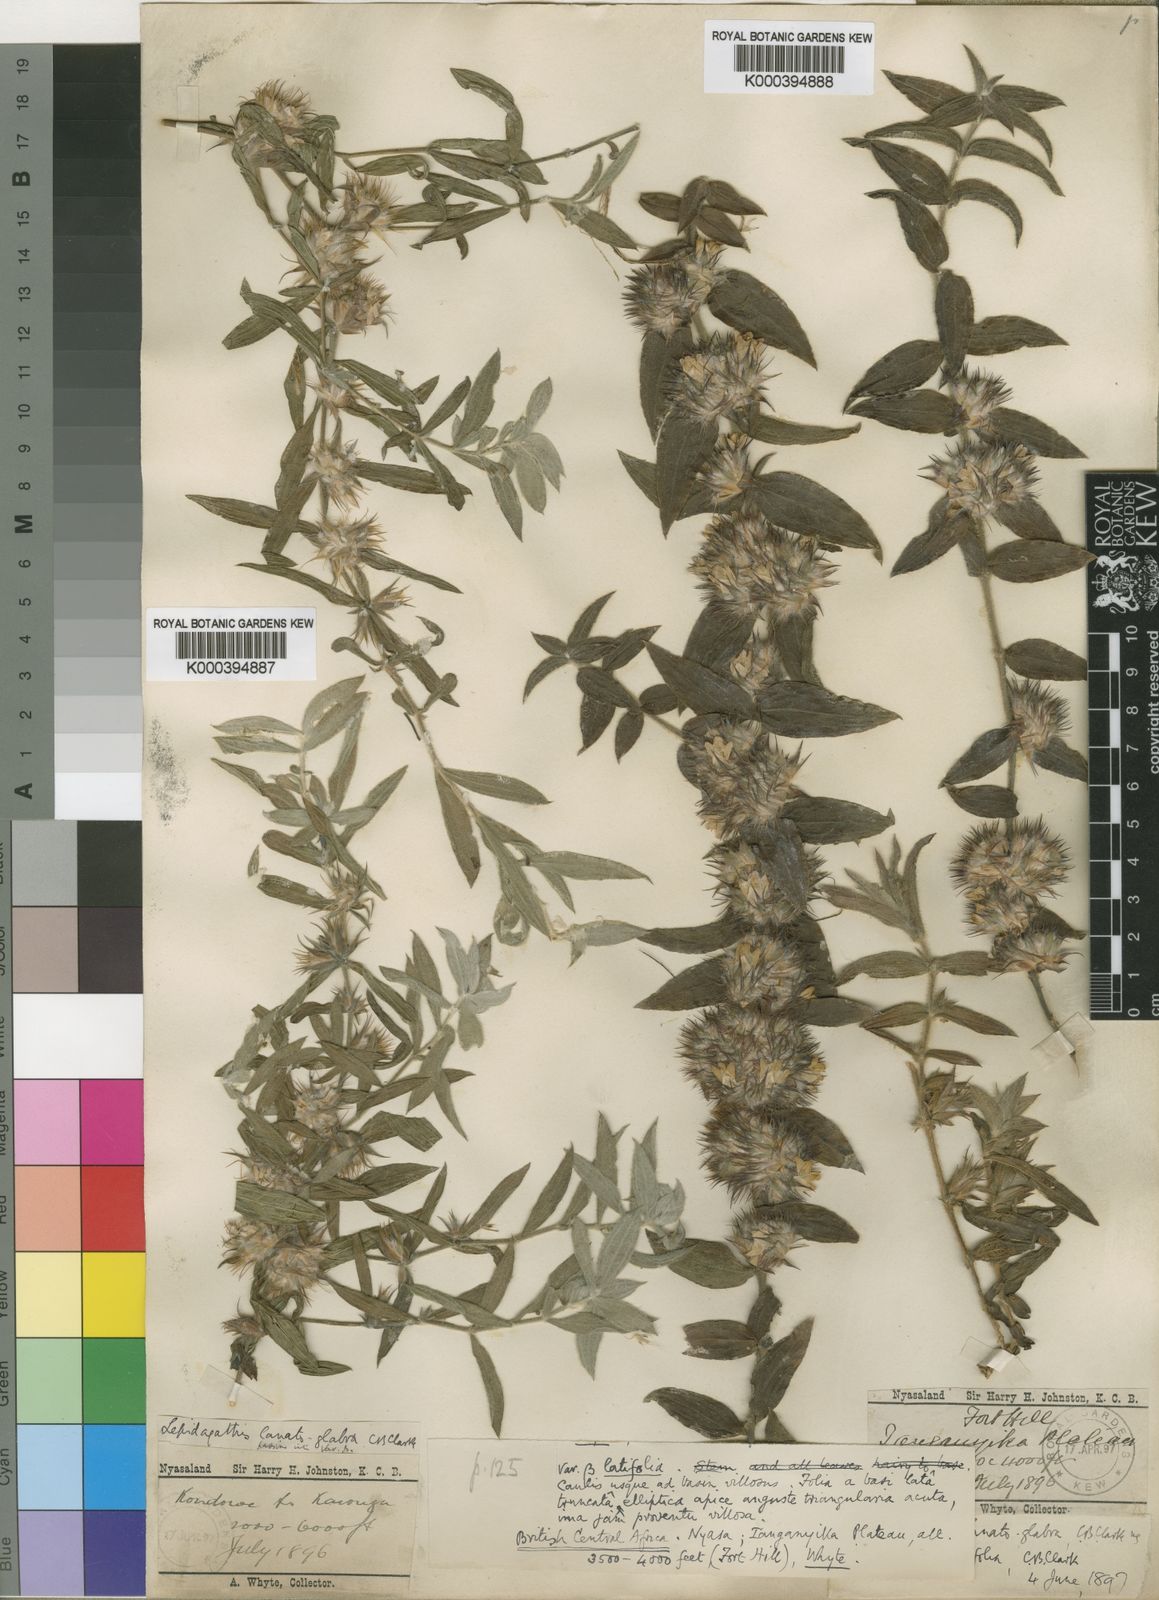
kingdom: Plantae
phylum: Tracheophyta
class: Magnoliopsida
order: Lamiales
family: Acanthaceae
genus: Lepidagathis
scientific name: Lepidagathis lanatoglabra
